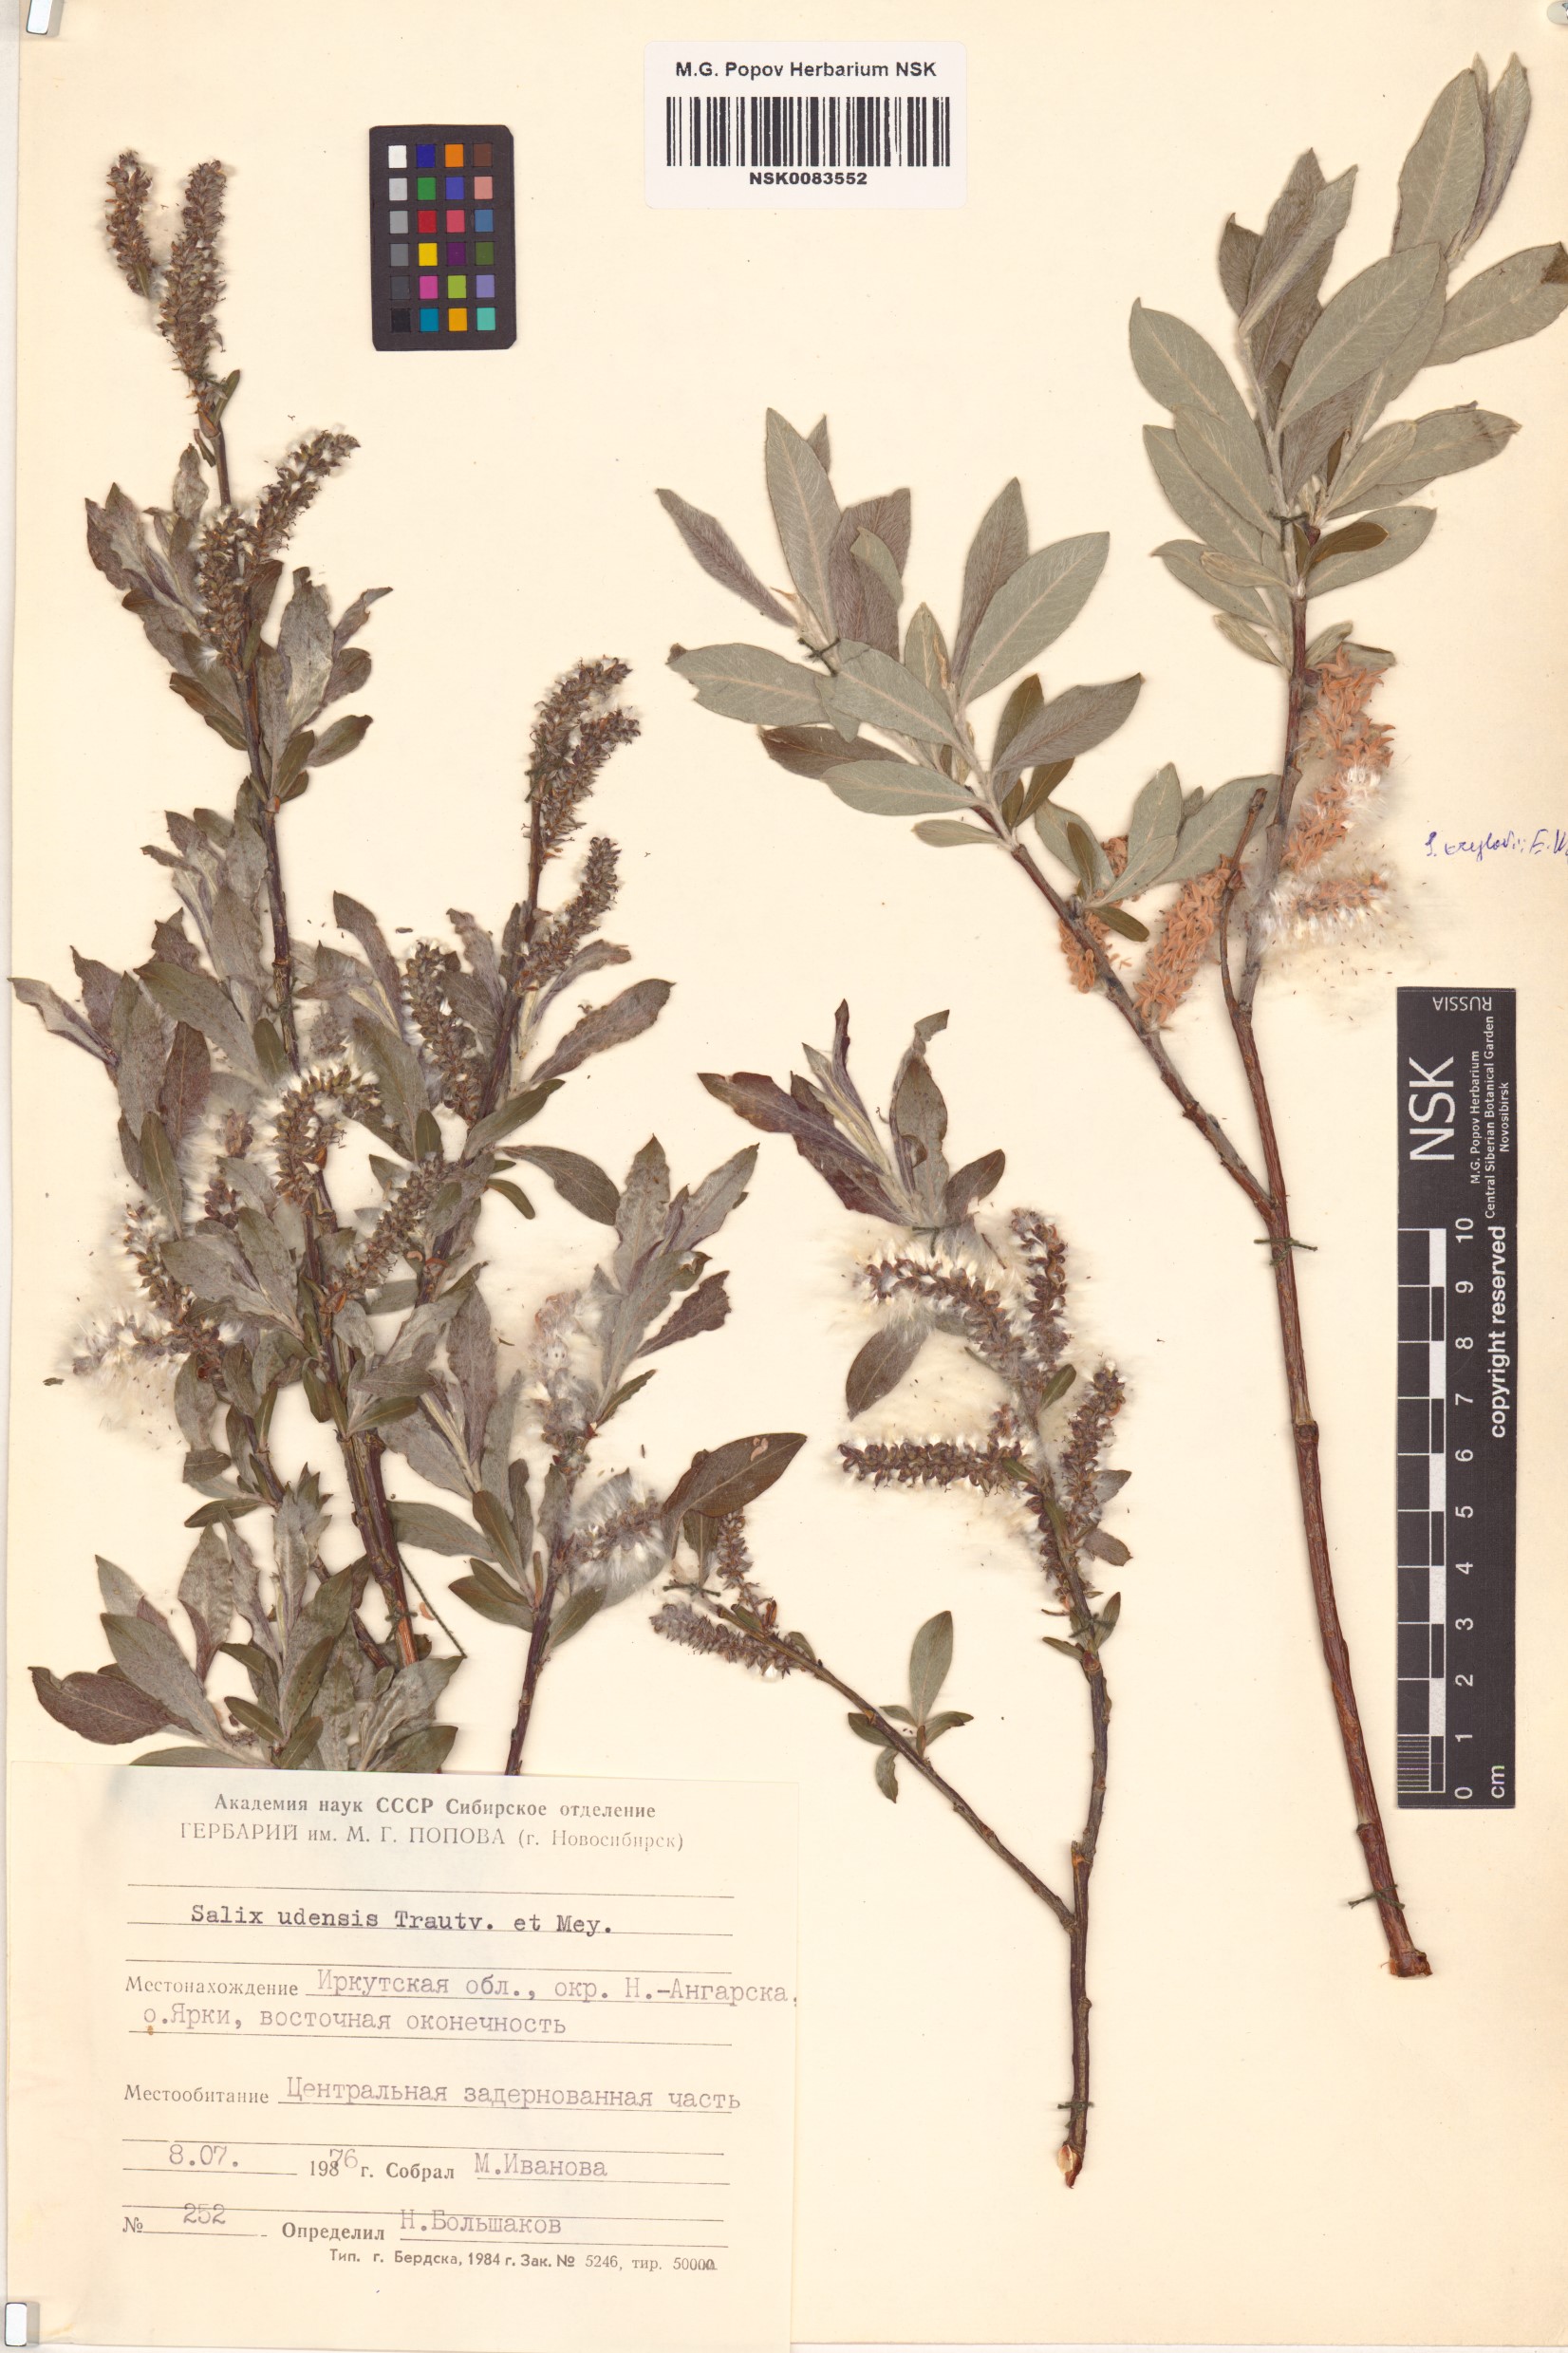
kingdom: Plantae
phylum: Tracheophyta
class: Magnoliopsida
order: Malpighiales
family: Salicaceae
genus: Salix
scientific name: Salix udensis
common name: Sachalin willow
